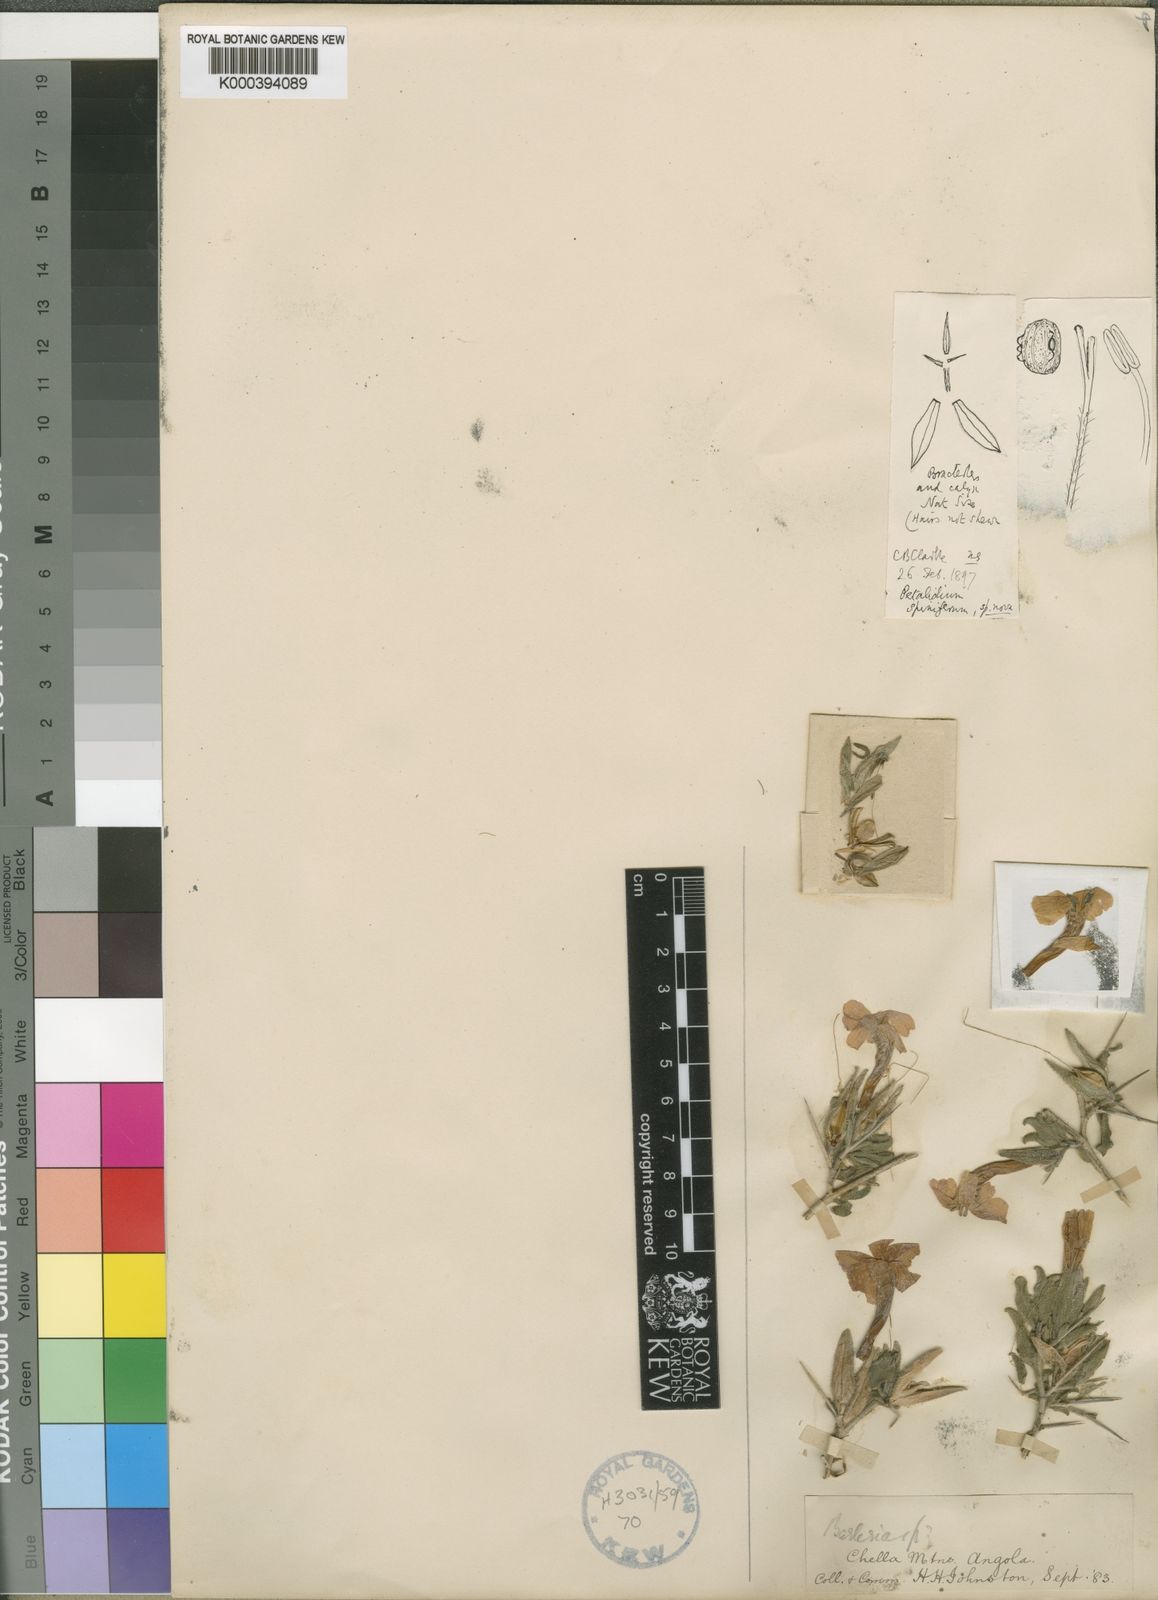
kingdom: Plantae
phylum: Tracheophyta
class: Magnoliopsida
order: Lamiales
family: Acanthaceae
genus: Petalidium
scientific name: Petalidium spiniferum
